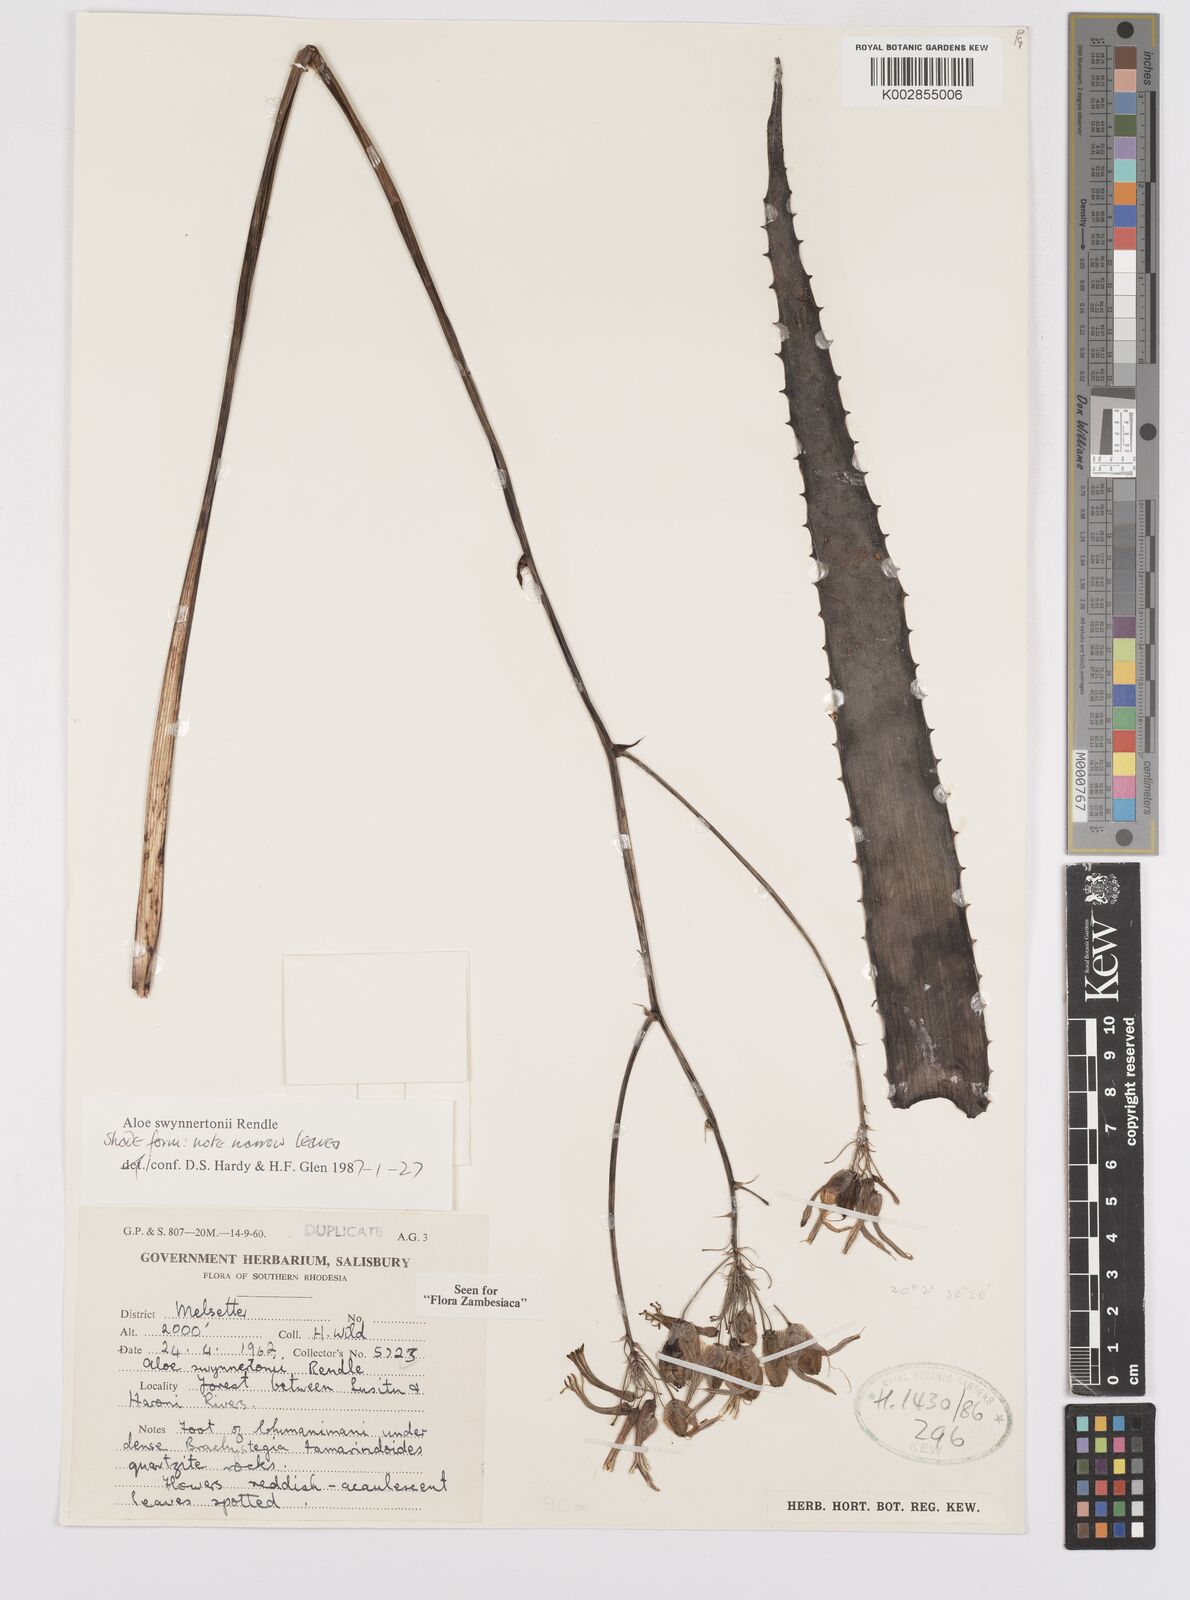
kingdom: Plantae
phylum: Tracheophyta
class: Liliopsida
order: Asparagales
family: Asphodelaceae
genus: Aloe
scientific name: Aloe swynnertonii
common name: Swynnerton's aloe
